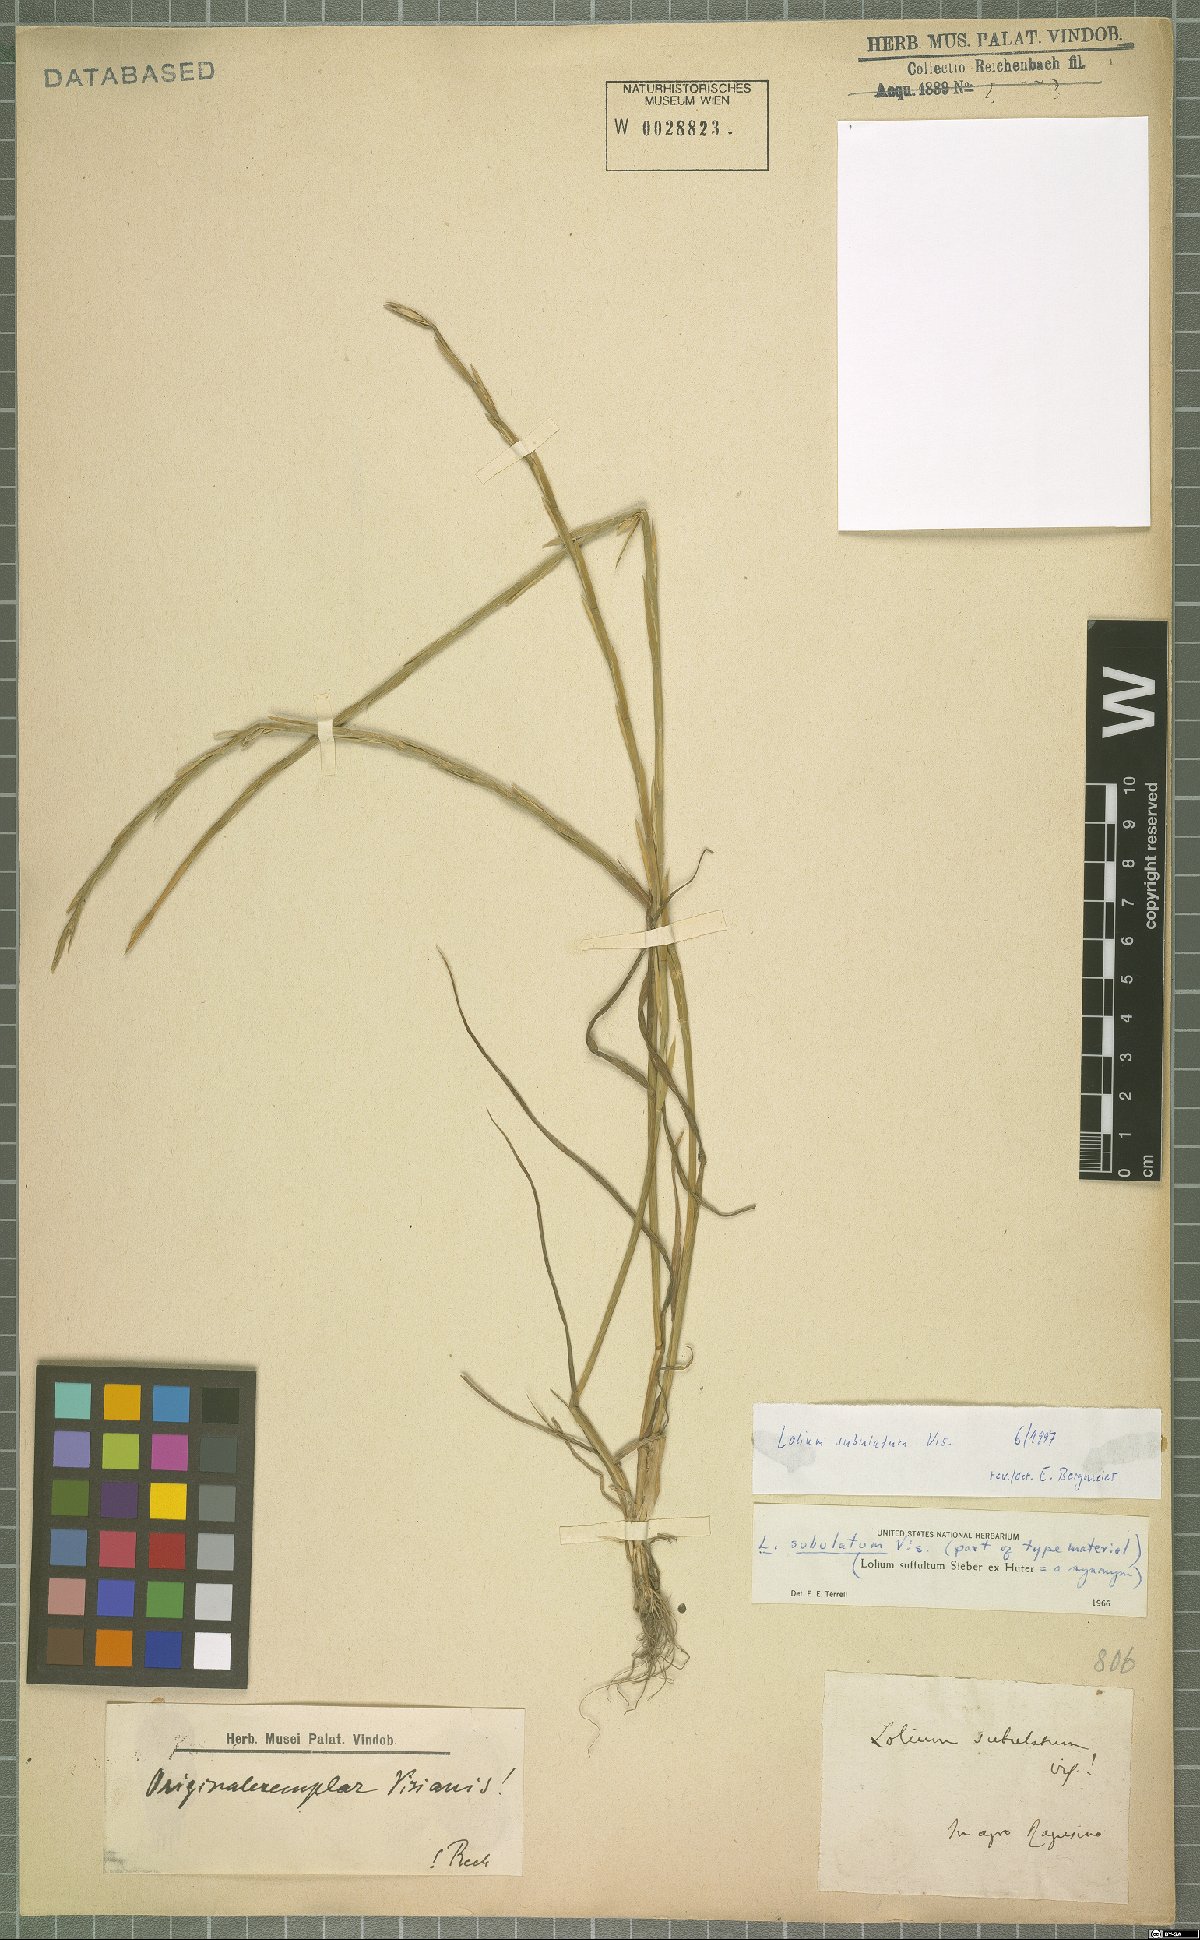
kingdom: Plantae
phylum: Tracheophyta
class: Liliopsida
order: Poales
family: Poaceae
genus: Lolium
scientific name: Lolium subulatum
